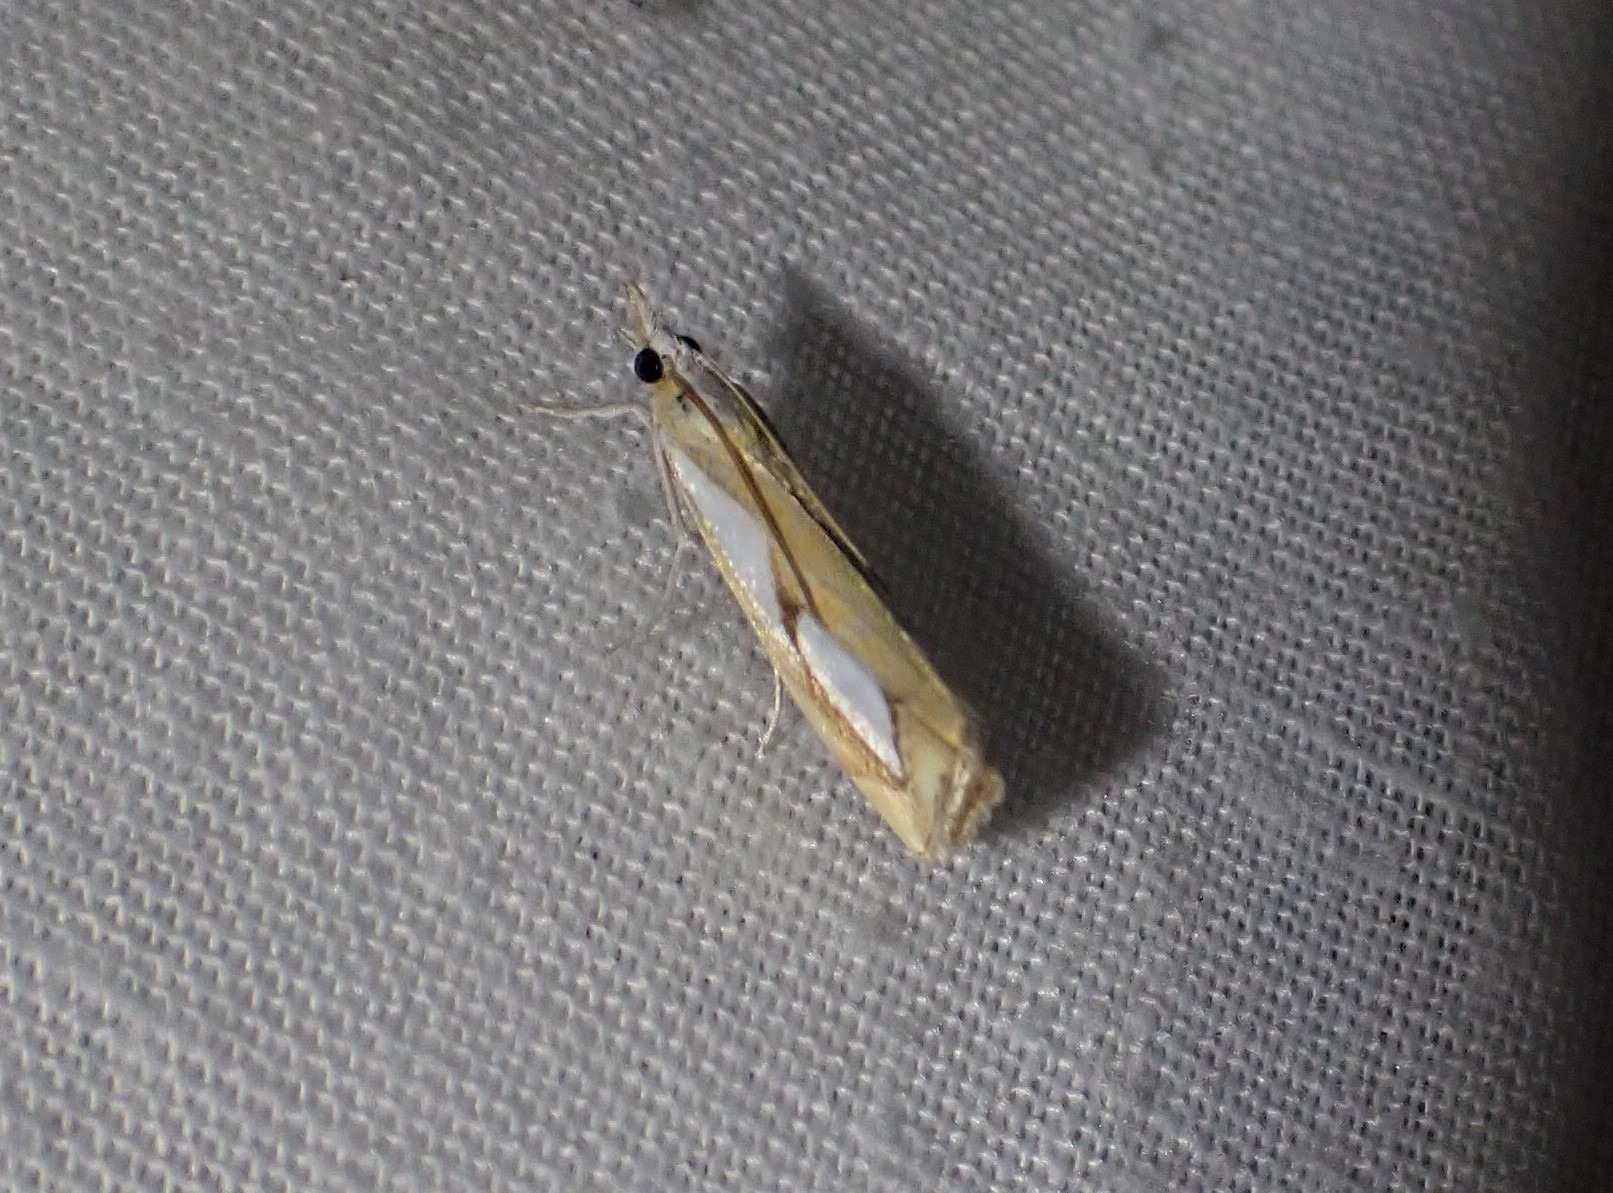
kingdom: Animalia
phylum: Arthropoda
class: Insecta
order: Lepidoptera
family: Crambidae
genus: Catoptria
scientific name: Catoptria pinella
